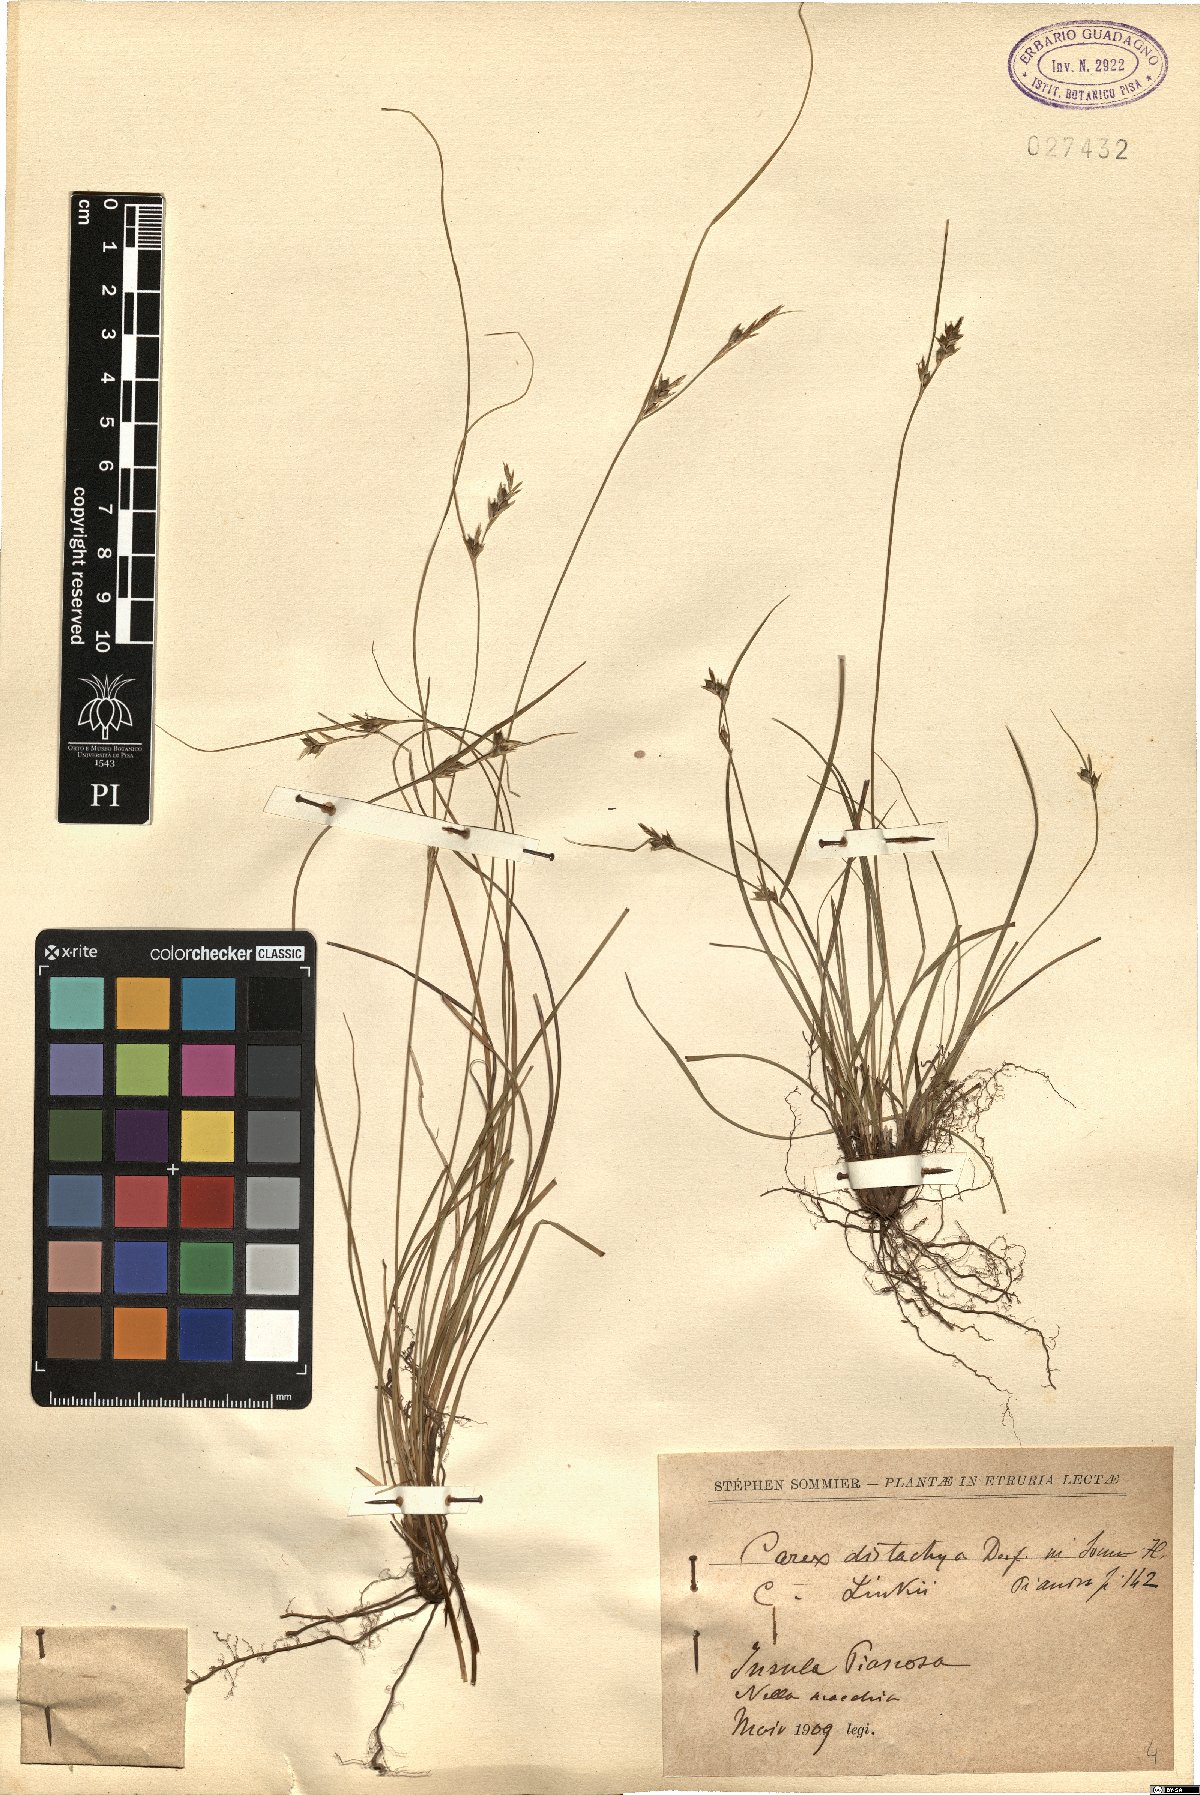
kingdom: Plantae
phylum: Tracheophyta
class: Liliopsida
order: Poales
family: Cyperaceae
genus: Carex
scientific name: Carex distachya
